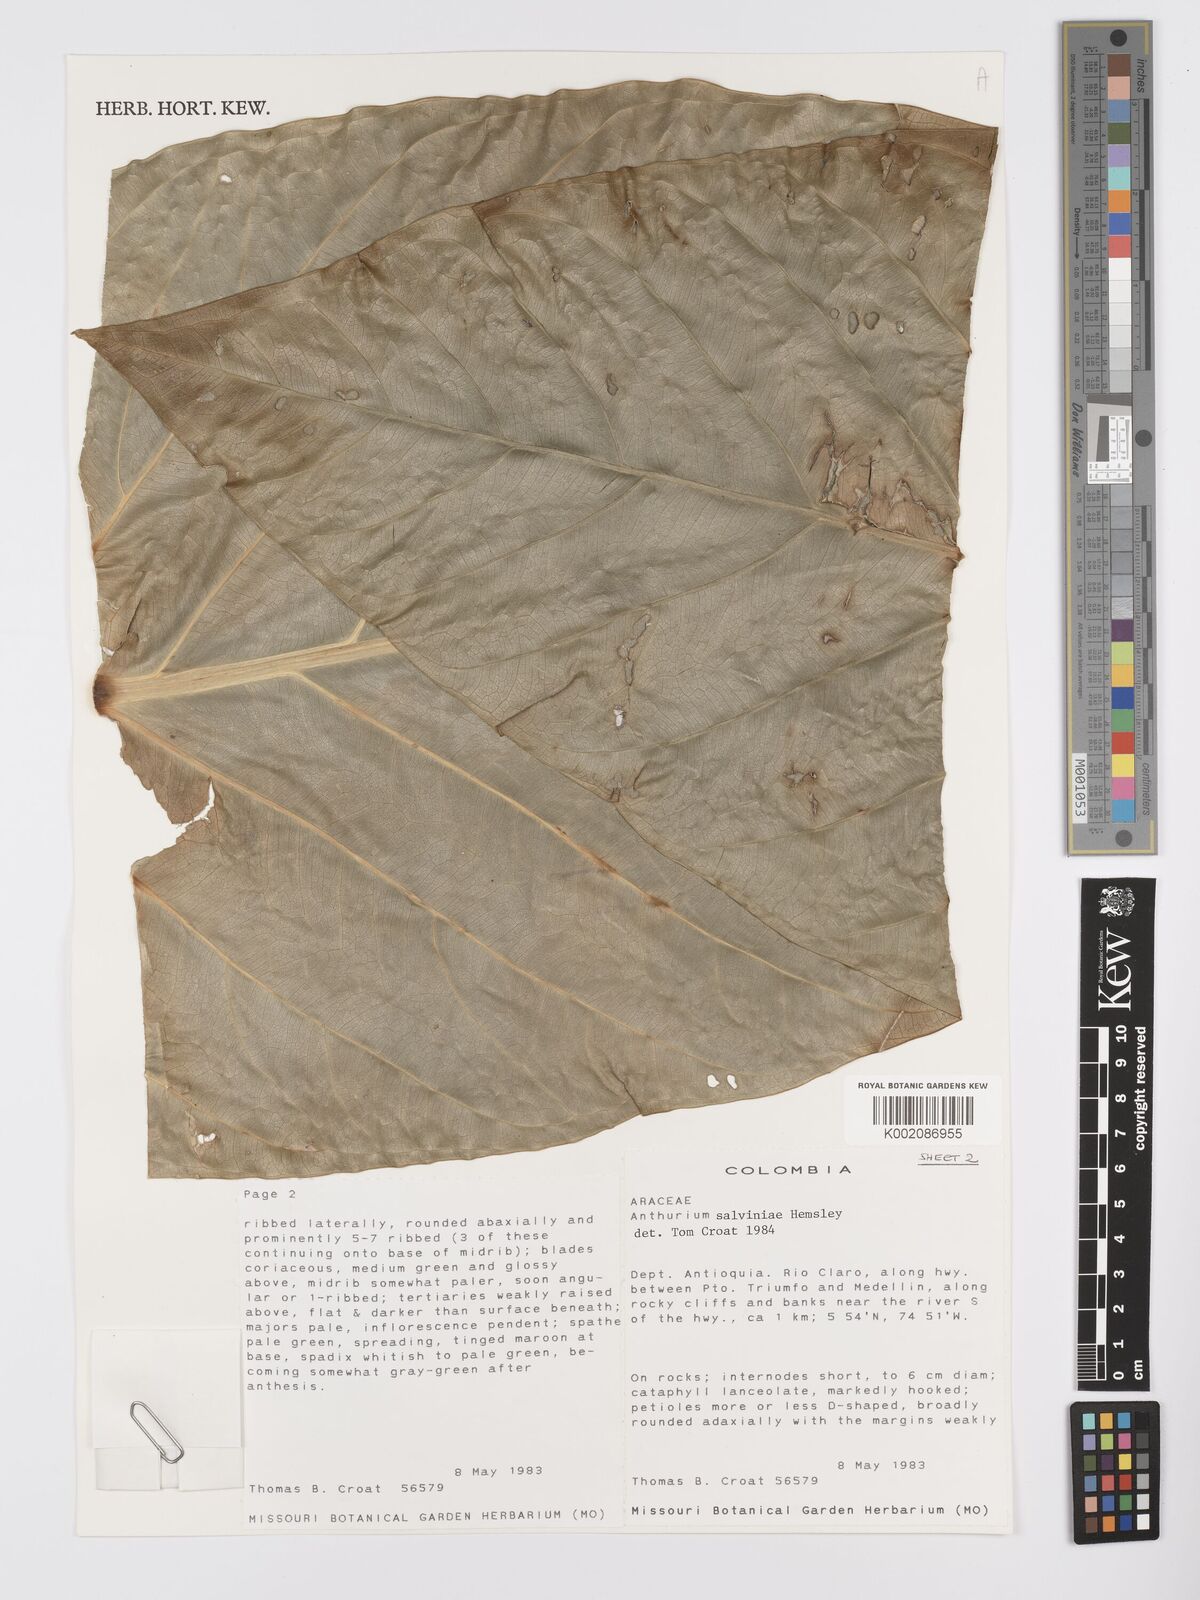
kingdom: Plantae
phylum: Tracheophyta
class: Liliopsida
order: Alismatales
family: Araceae
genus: Anthurium
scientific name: Anthurium salvinii
